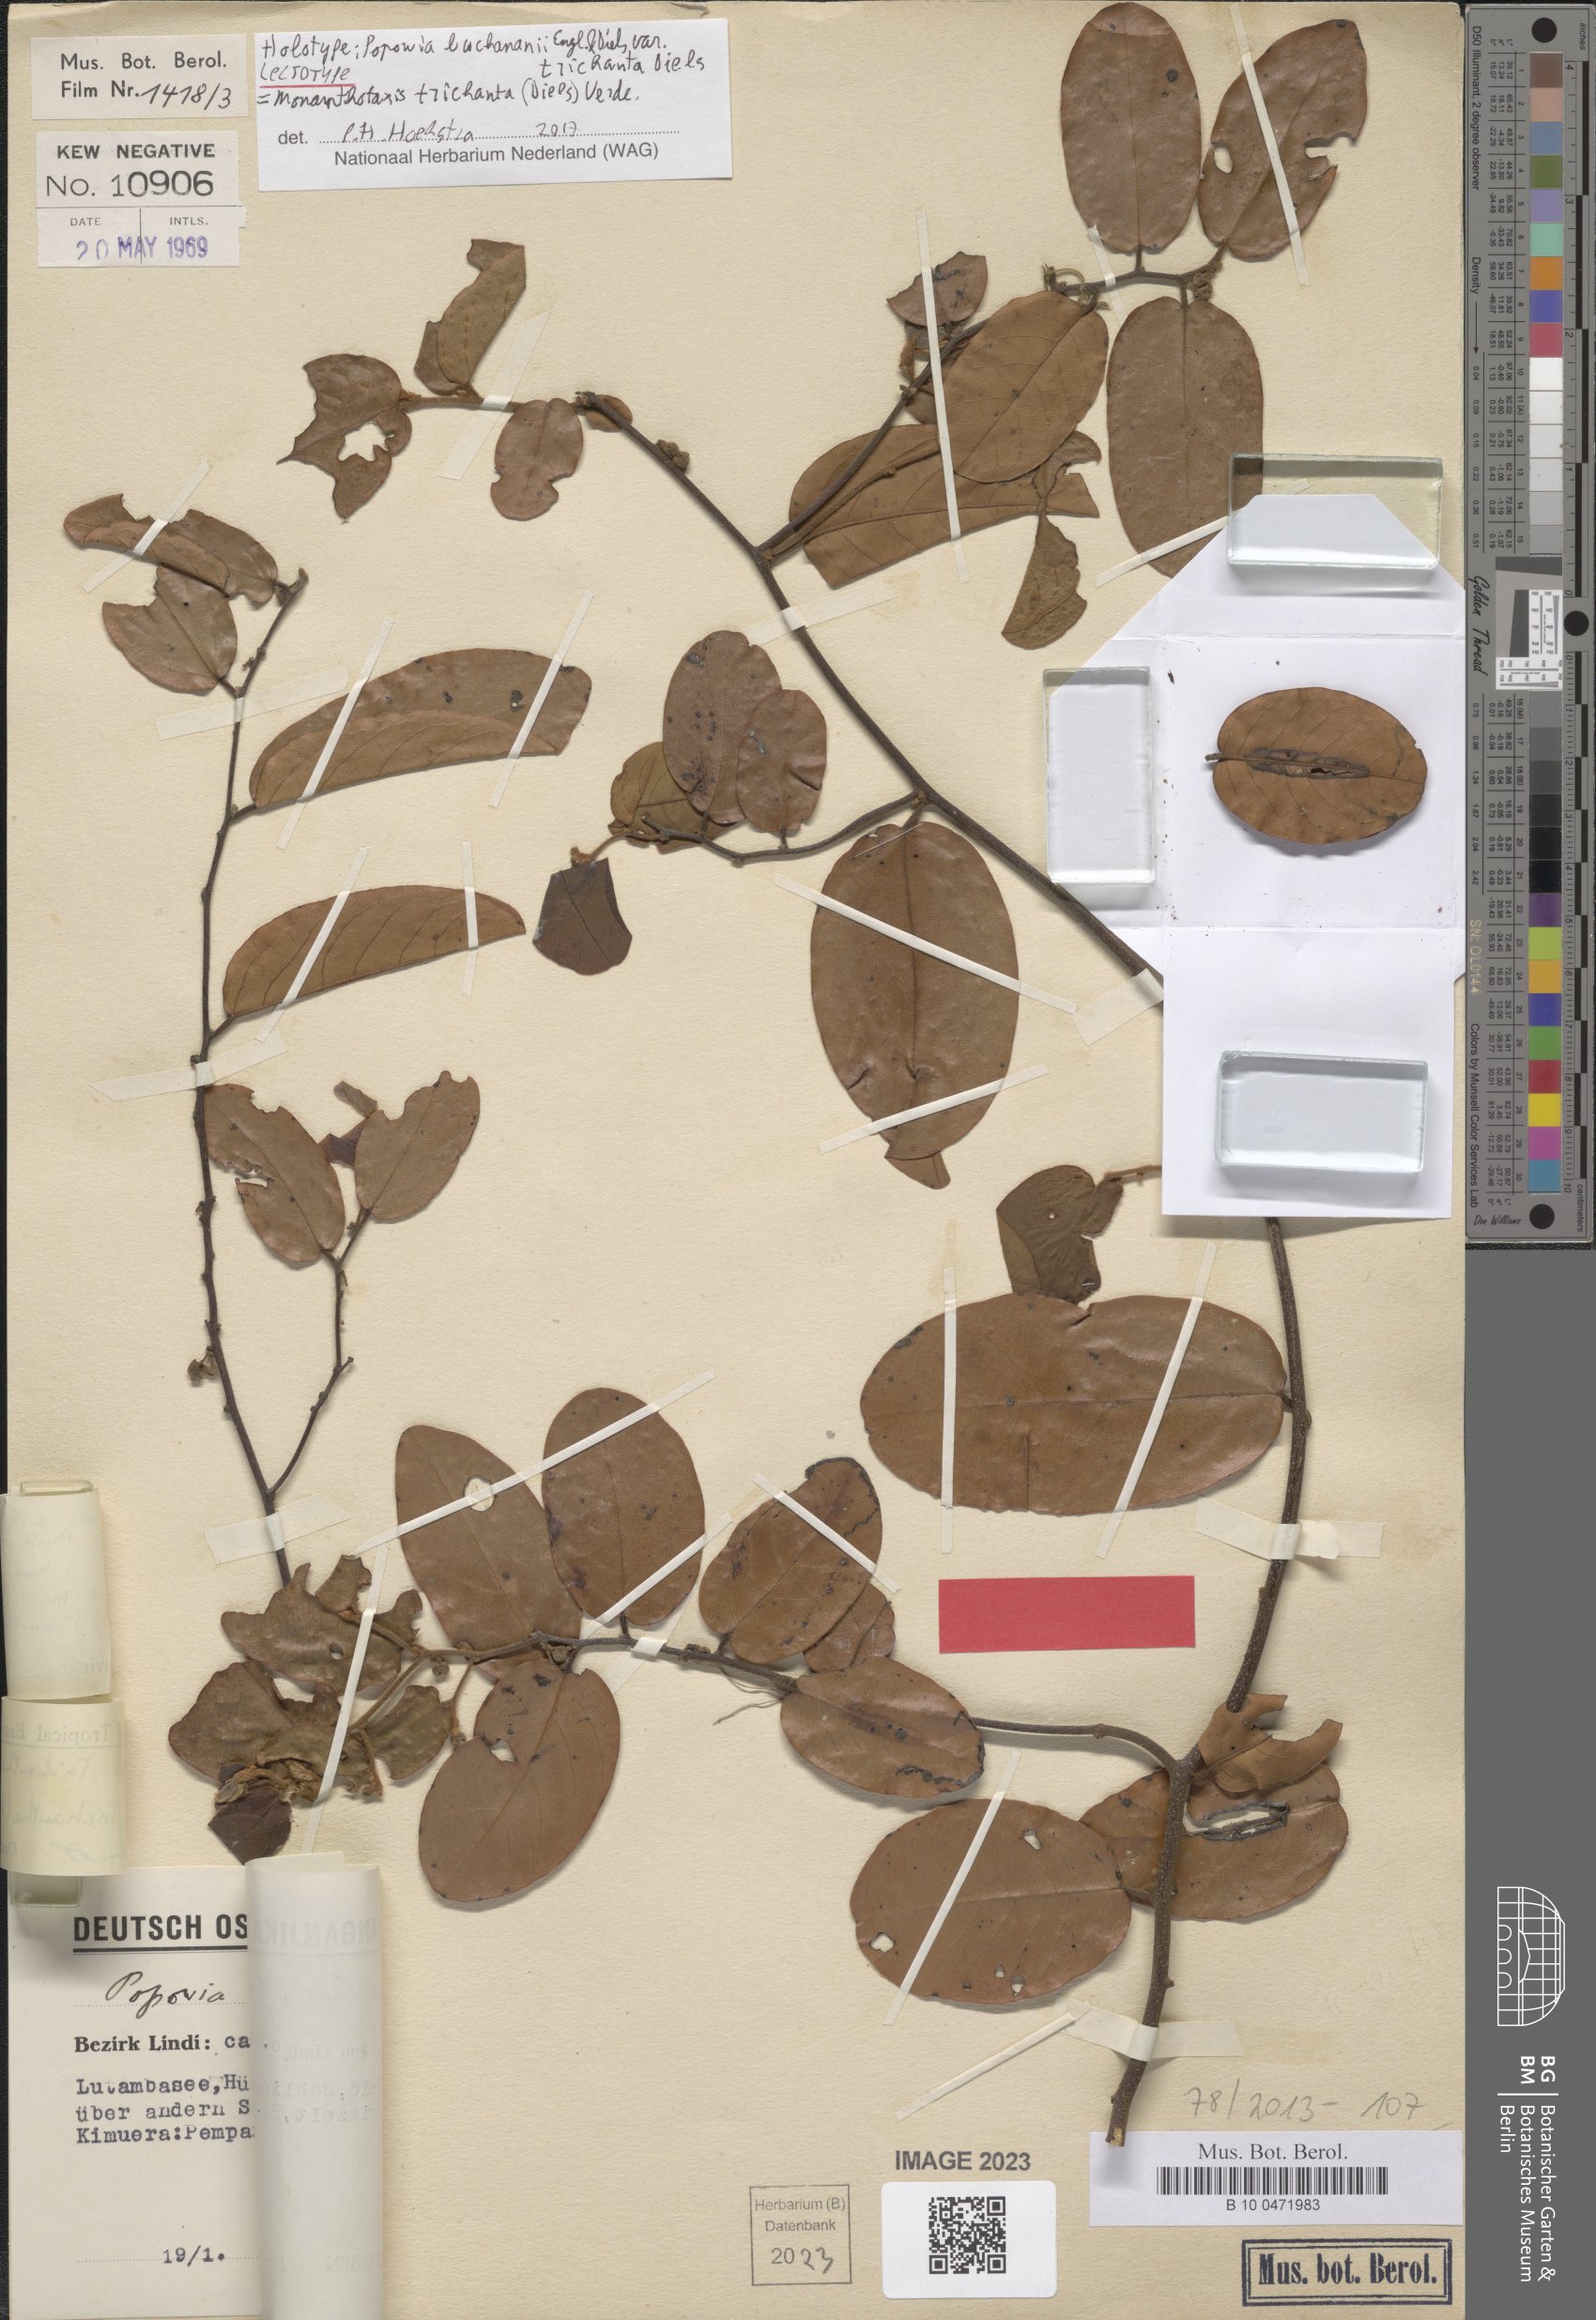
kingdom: Plantae
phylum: Tracheophyta
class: Magnoliopsida
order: Magnoliales
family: Annonaceae
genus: Monanthotaxis
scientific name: Monanthotaxis trichantha
